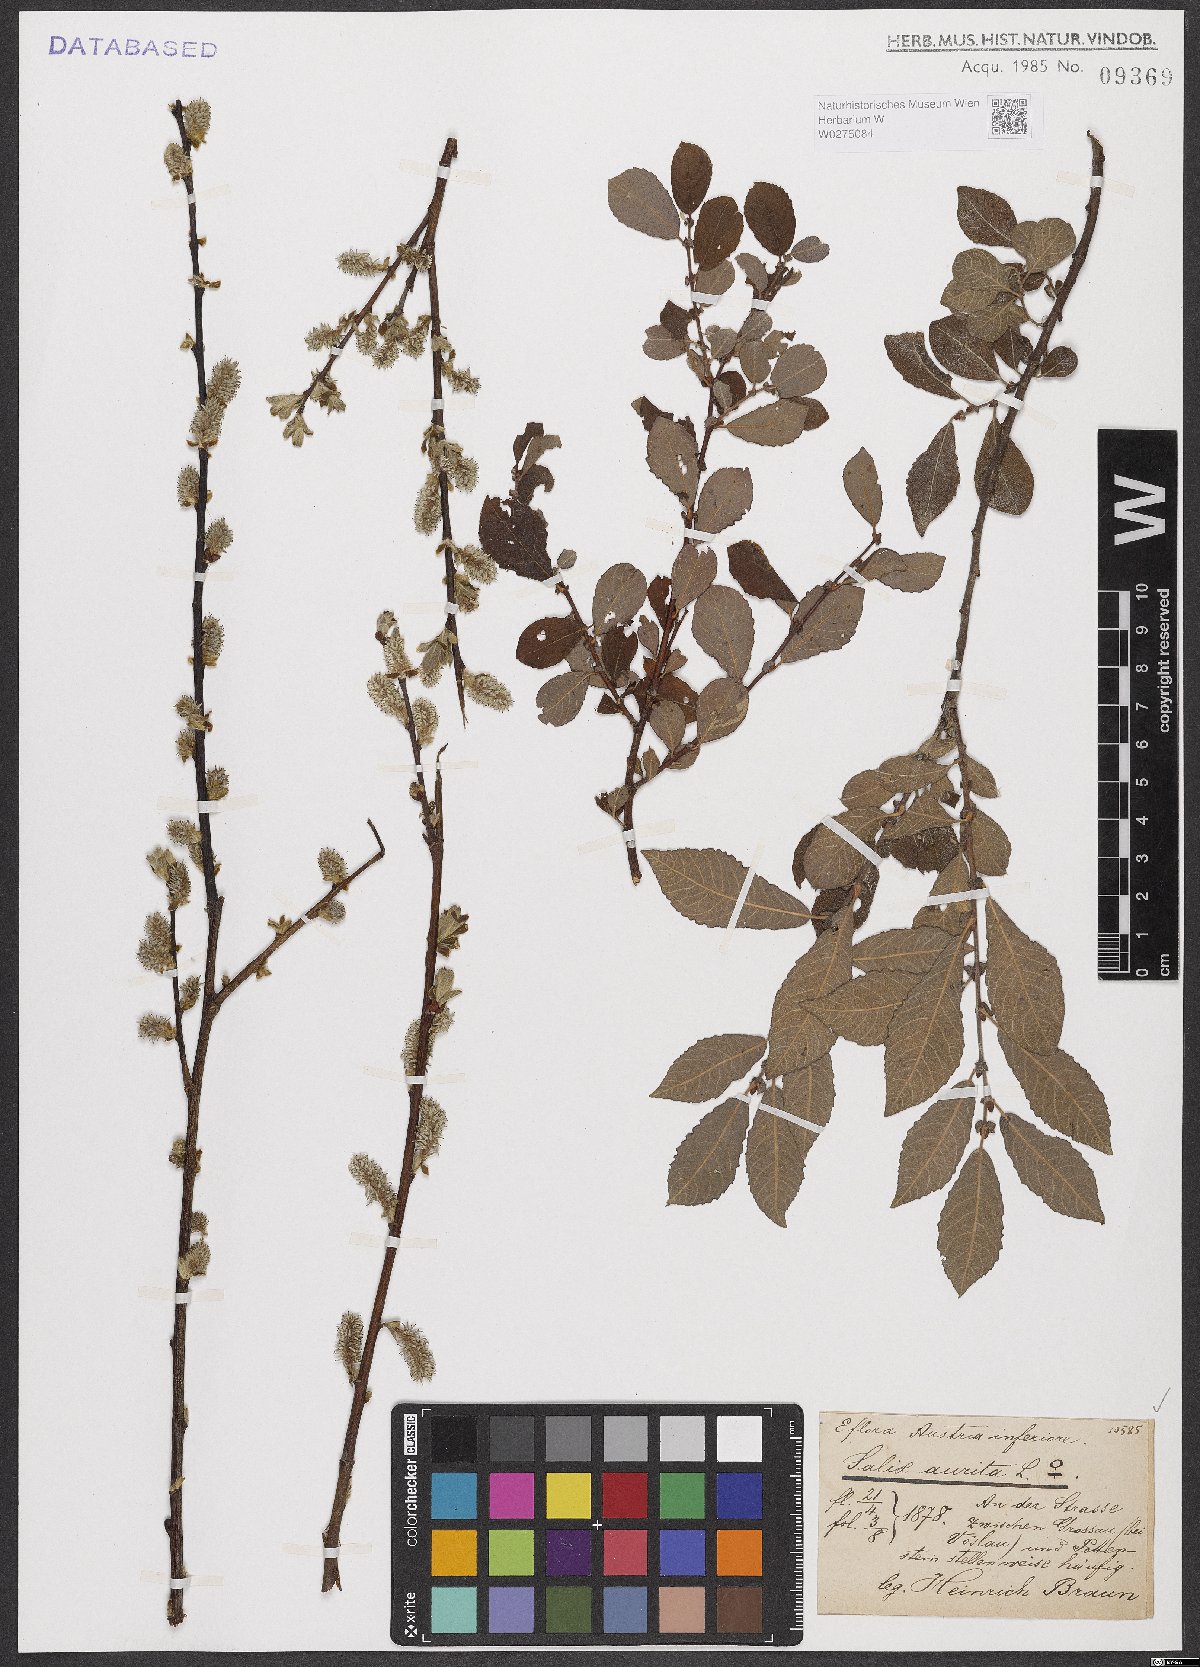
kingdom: Plantae
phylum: Tracheophyta
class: Magnoliopsida
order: Malpighiales
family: Salicaceae
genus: Salix
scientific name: Salix aurita
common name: Eared willow
